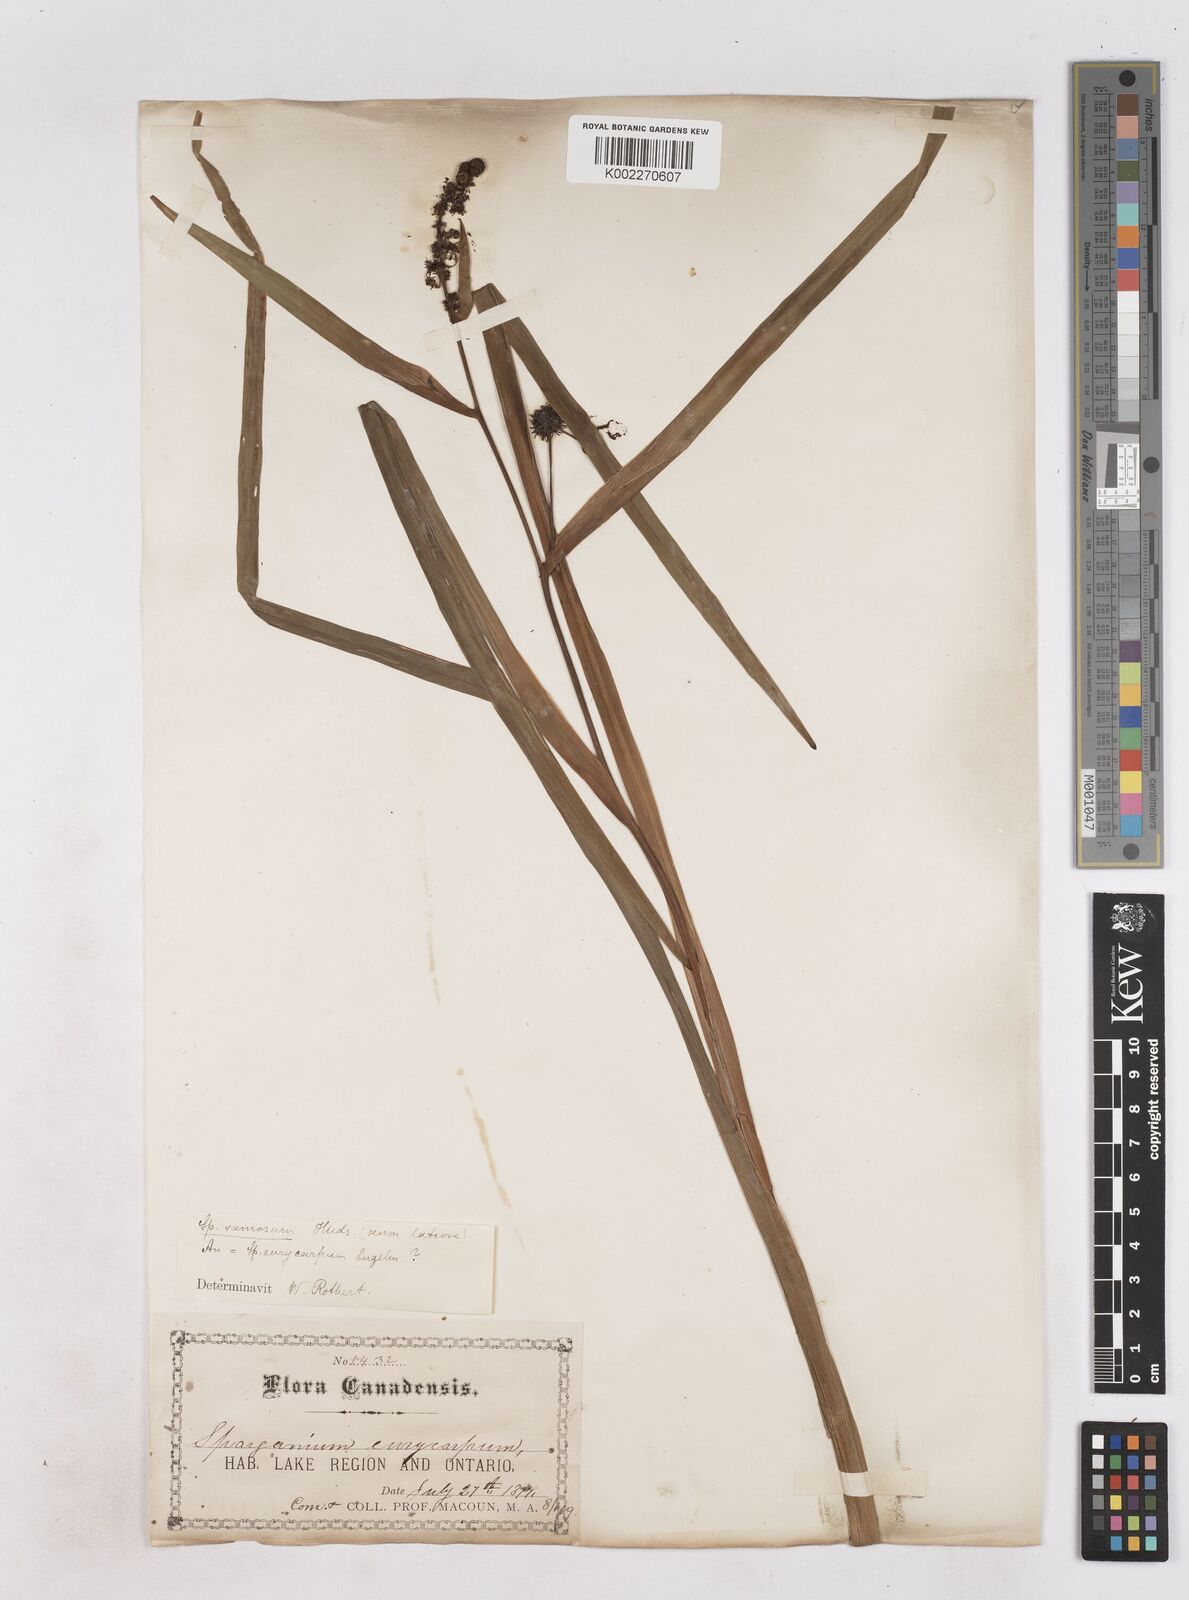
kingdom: Plantae
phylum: Tracheophyta
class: Liliopsida
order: Poales
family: Typhaceae
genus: Sparganium
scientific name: Sparganium eurycarpum
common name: Broad-fruited burreed
